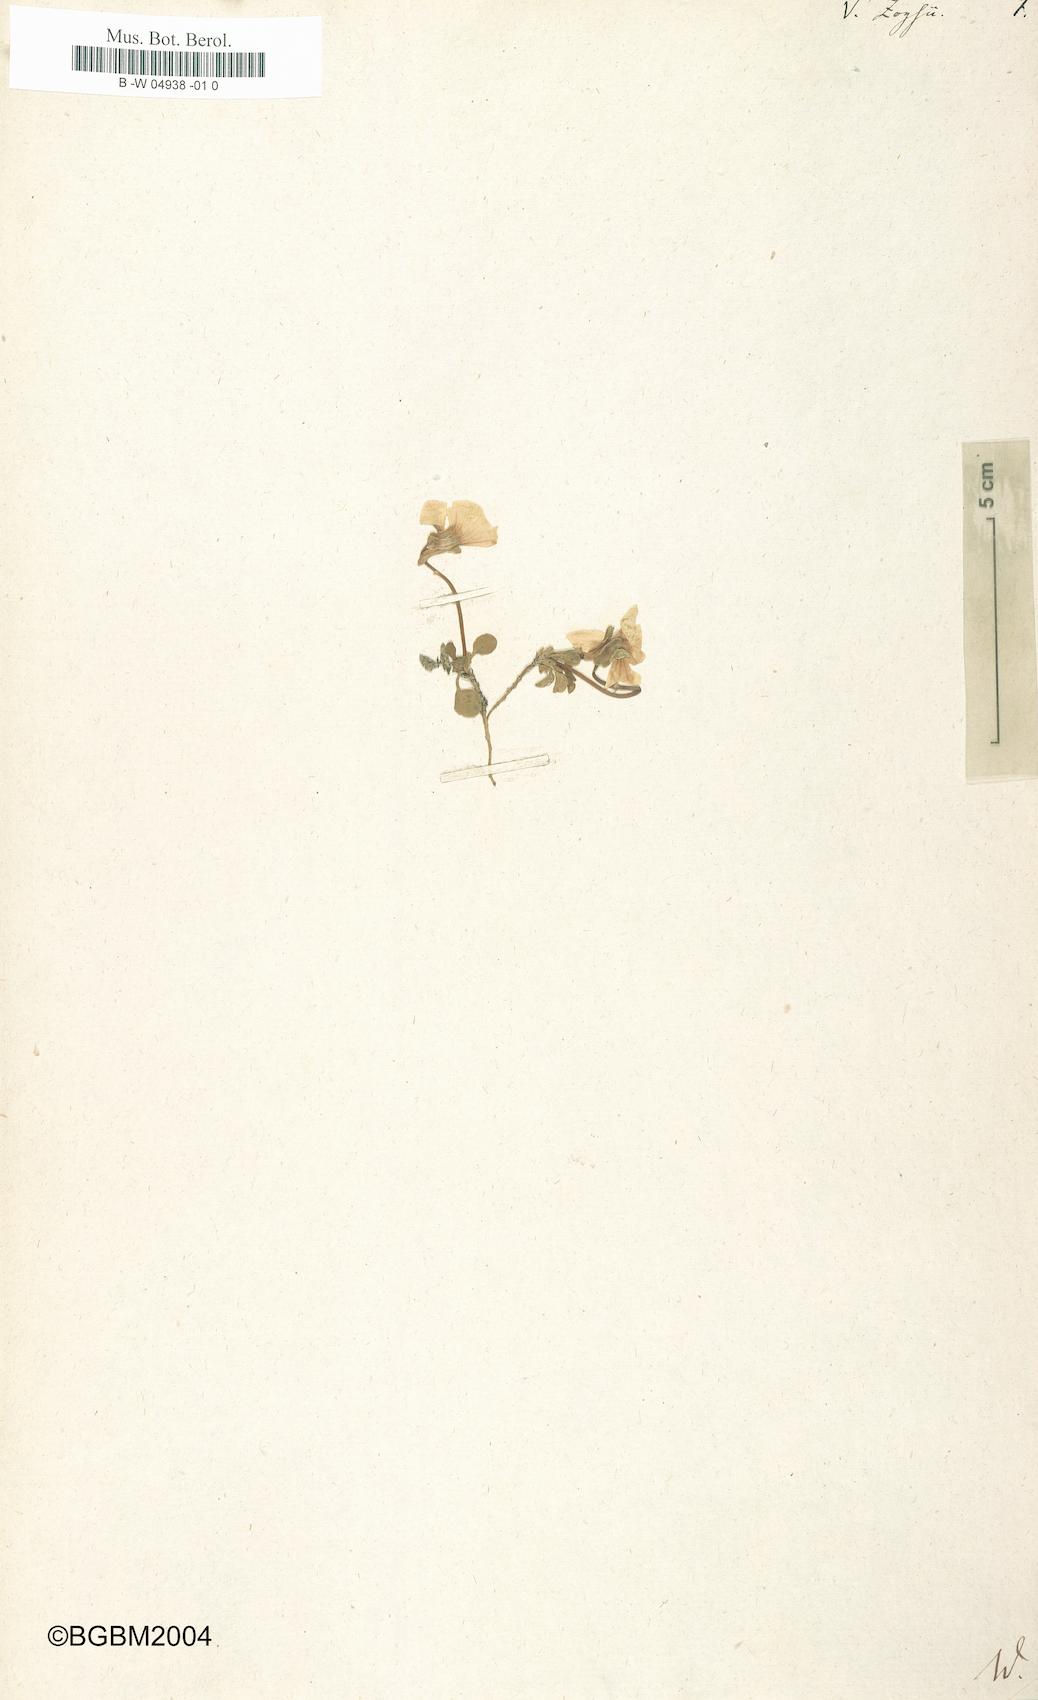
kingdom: Plantae
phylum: Tracheophyta
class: Magnoliopsida
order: Malpighiales
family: Violaceae
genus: Viola
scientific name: Viola calcarata
